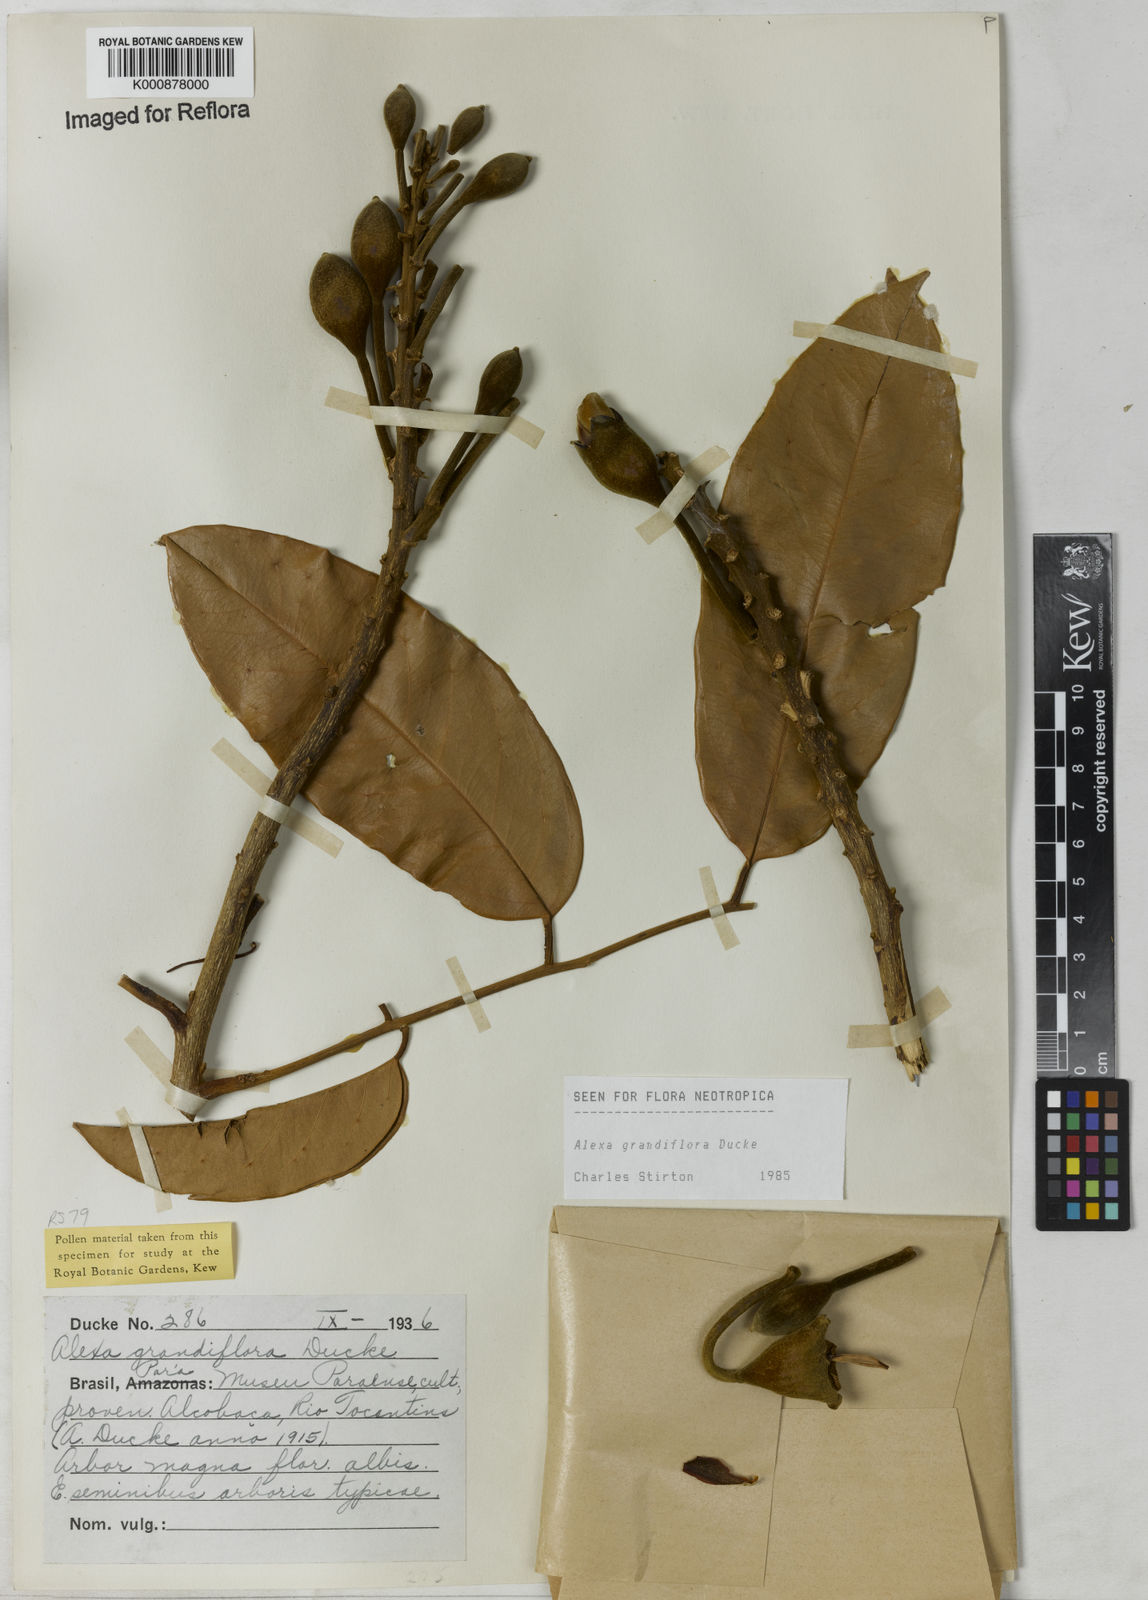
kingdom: Plantae
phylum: Tracheophyta
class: Magnoliopsida
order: Fabales
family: Fabaceae
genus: Alexa
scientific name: Alexa grandiflora
